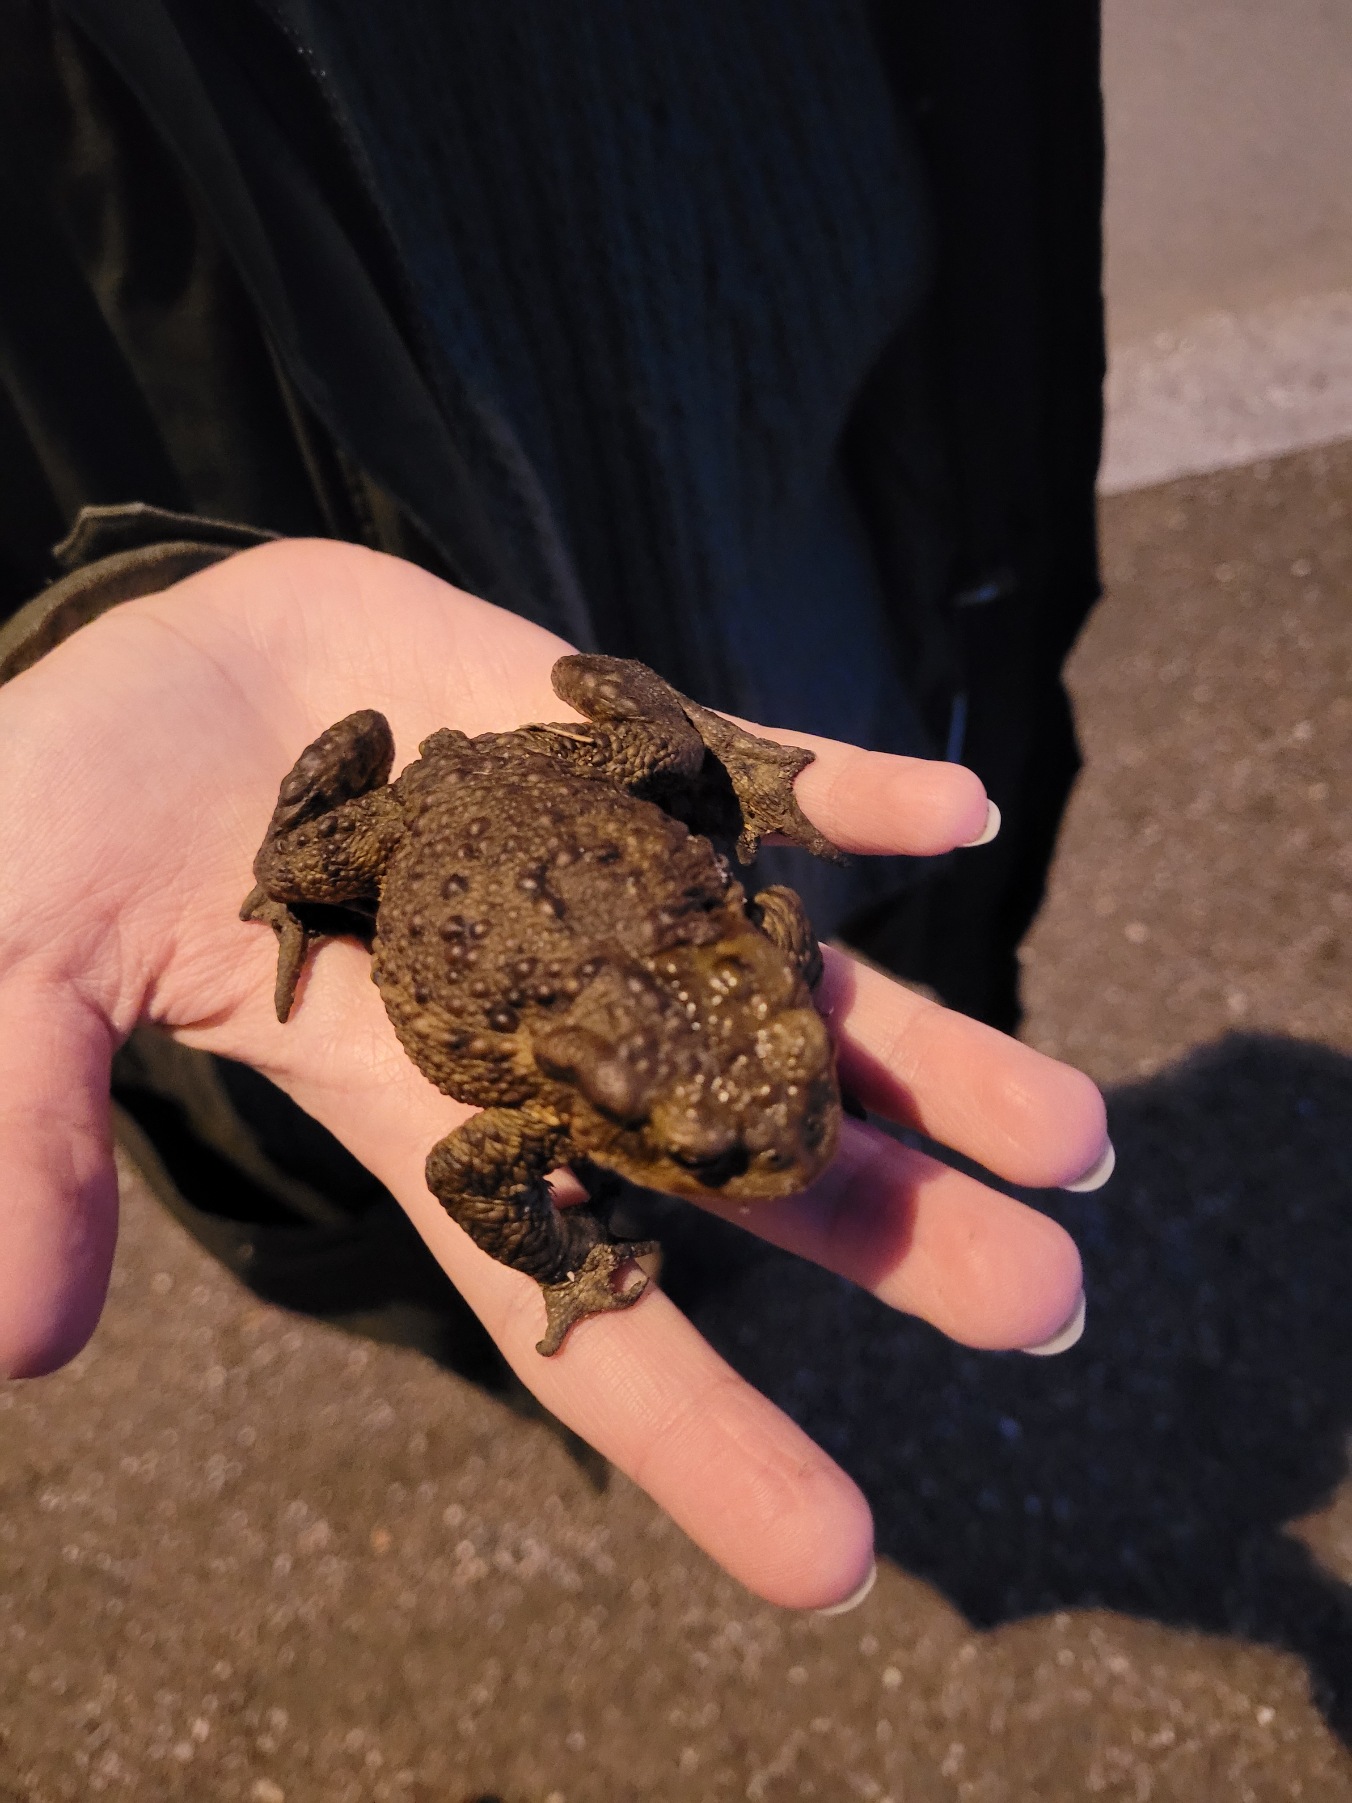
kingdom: Animalia
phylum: Chordata
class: Amphibia
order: Anura
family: Bufonidae
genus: Bufo
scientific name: Bufo bufo
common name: Skrubtudse
